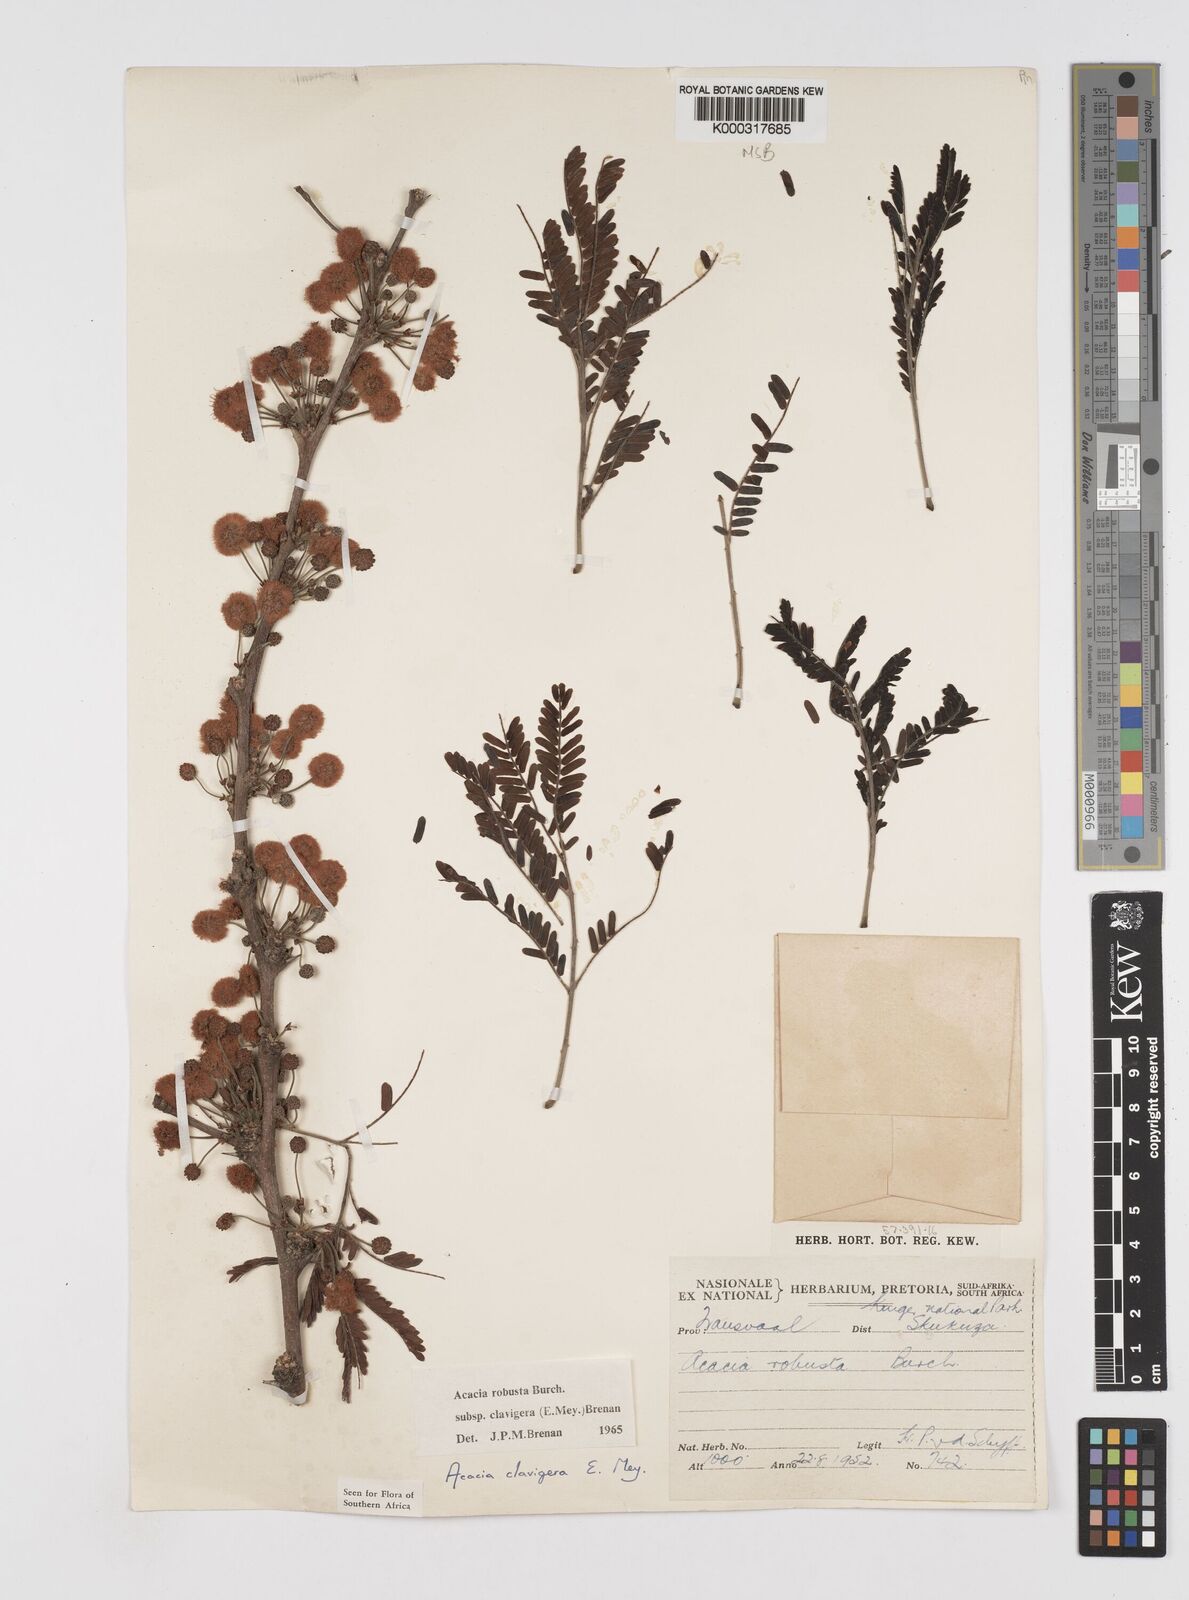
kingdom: Plantae
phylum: Tracheophyta
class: Magnoliopsida
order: Fabales
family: Fabaceae
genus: Vachellia
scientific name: Vachellia robusta
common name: Ankle thorn
